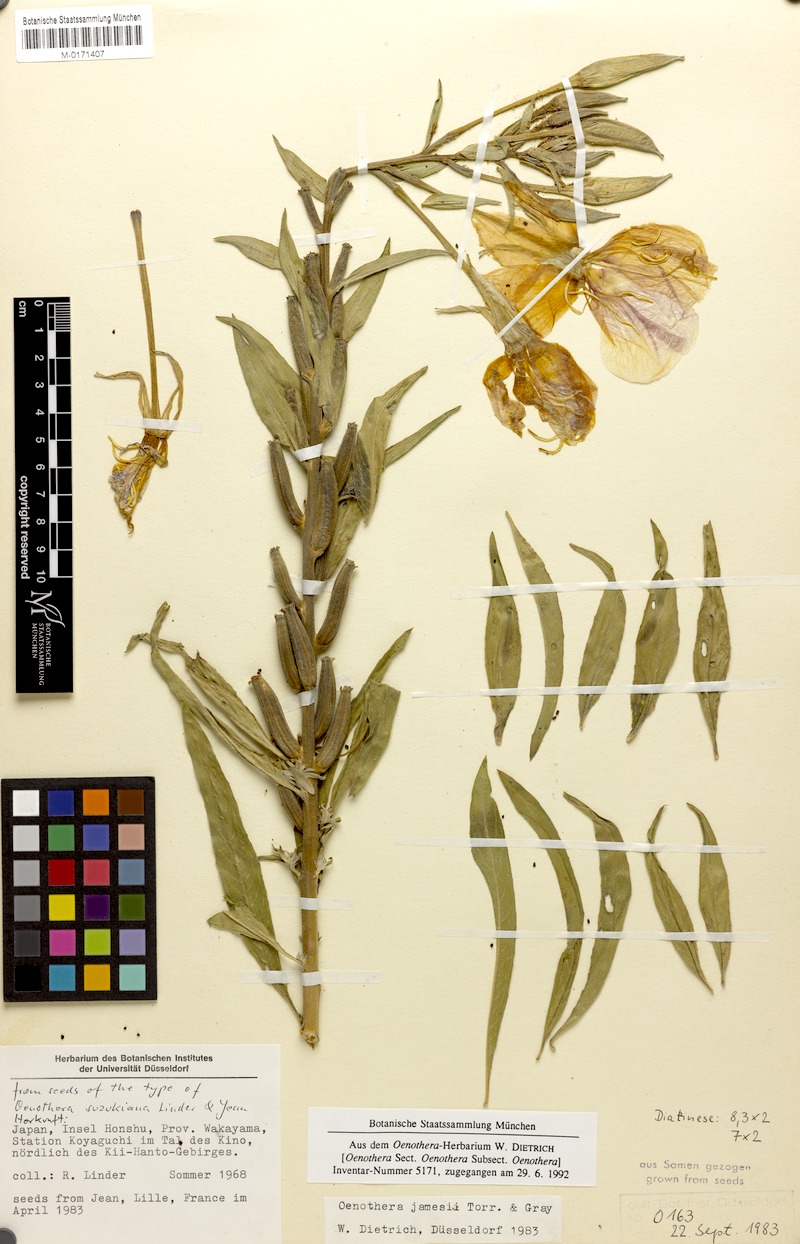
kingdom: Plantae
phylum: Tracheophyta
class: Magnoliopsida
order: Myrtales
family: Onagraceae
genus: Oenothera
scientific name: Oenothera jamesii
